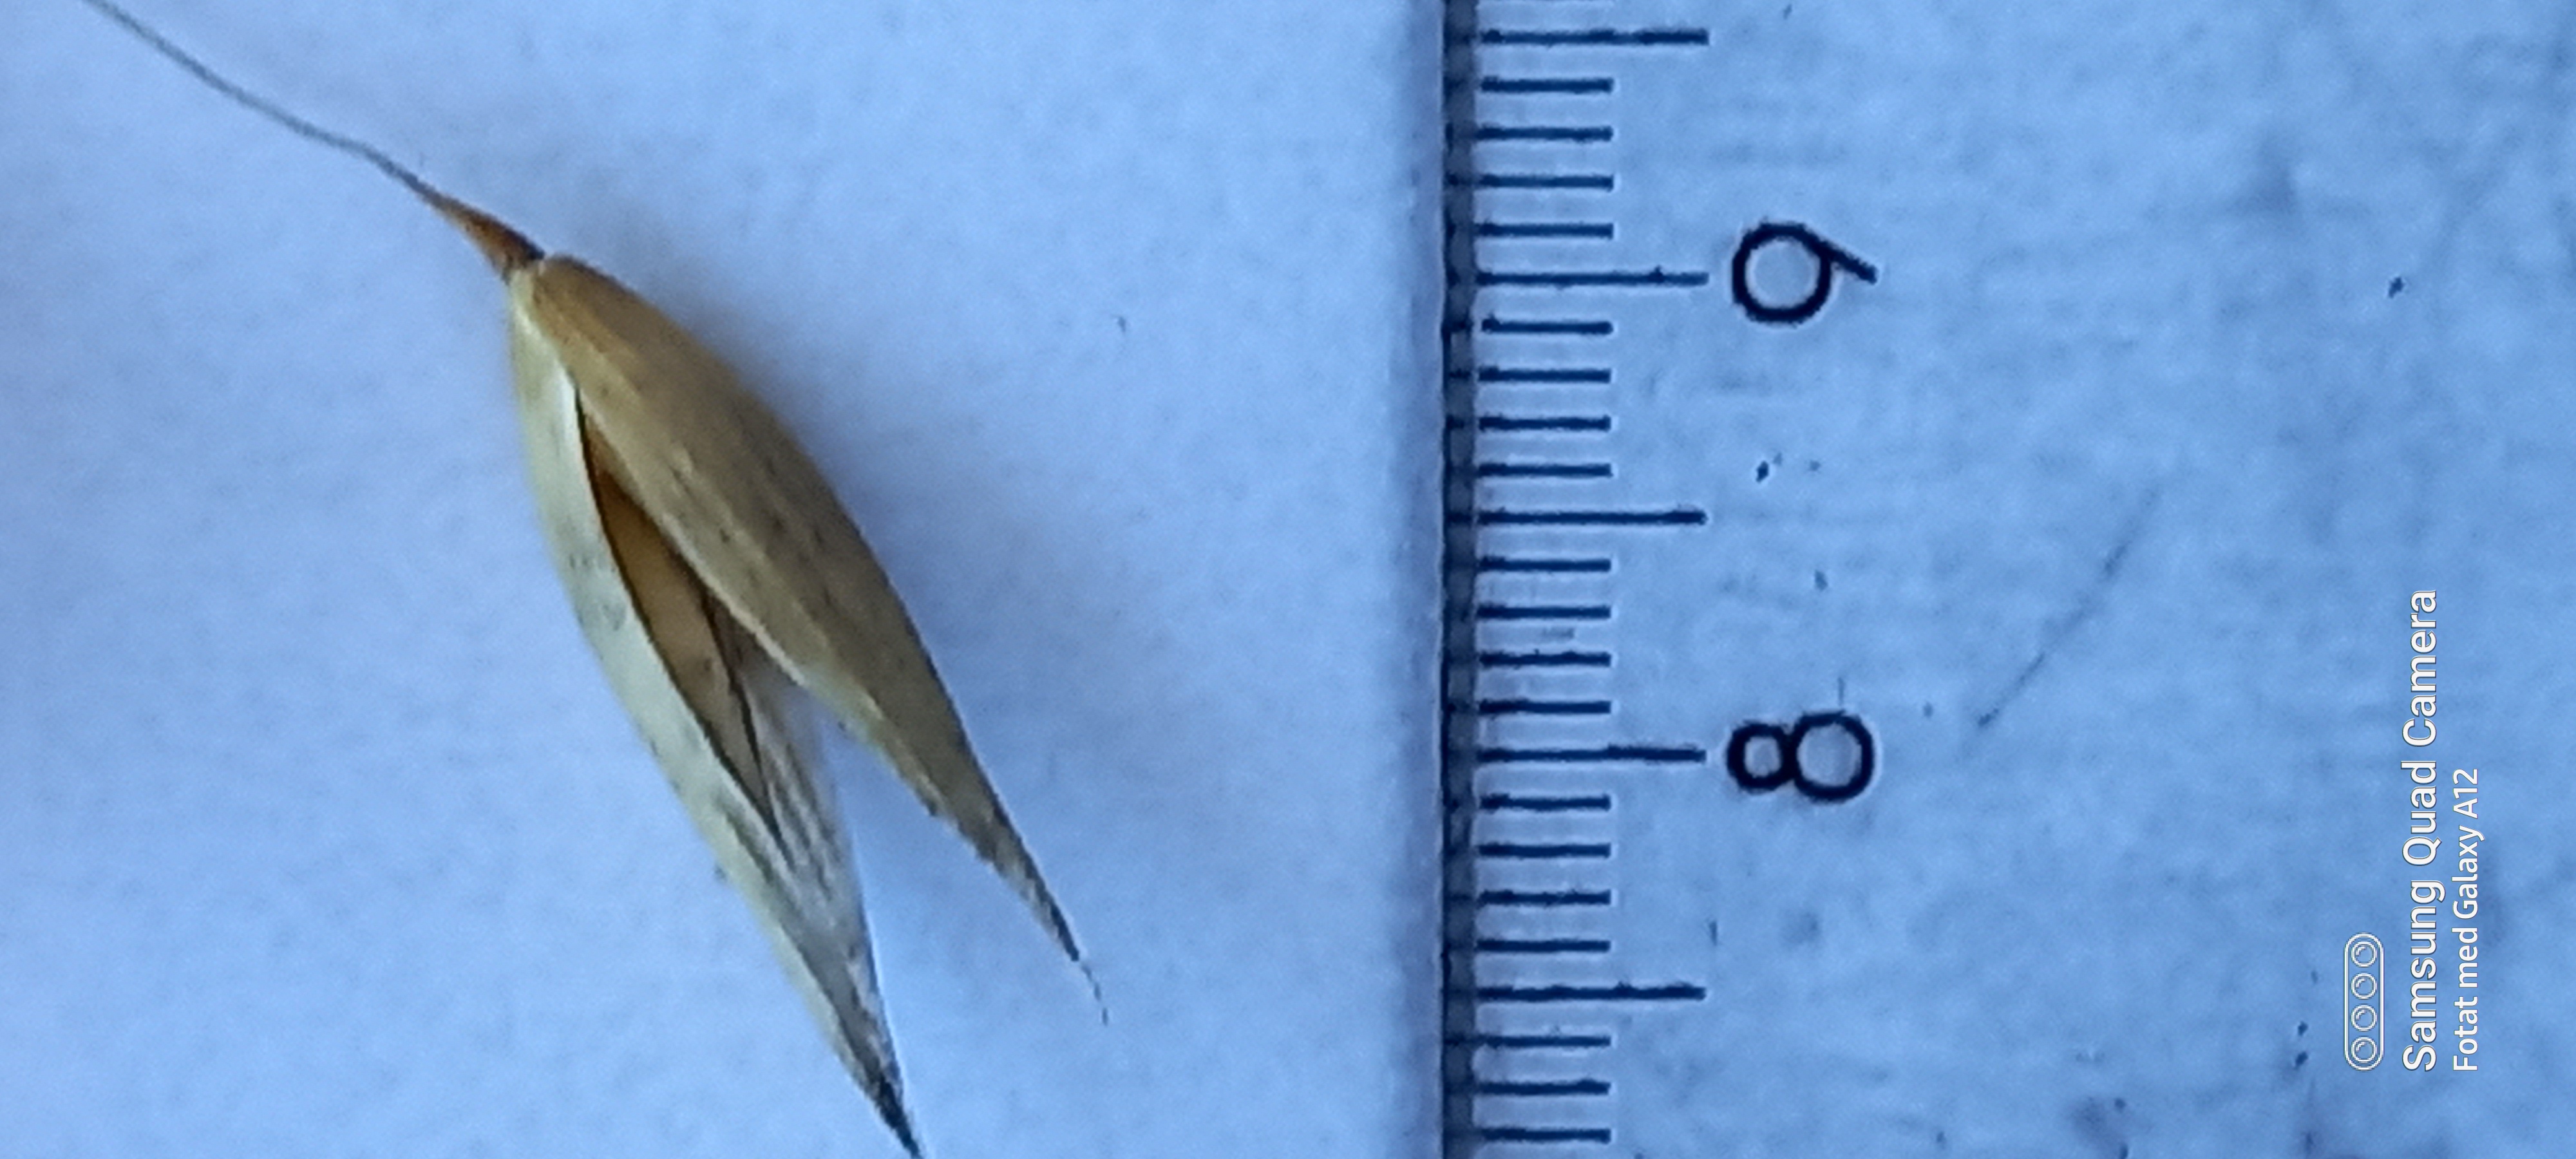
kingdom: Plantae
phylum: Tracheophyta
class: Liliopsida
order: Poales
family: Poaceae
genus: Avena
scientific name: Avena sativa
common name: Oat
